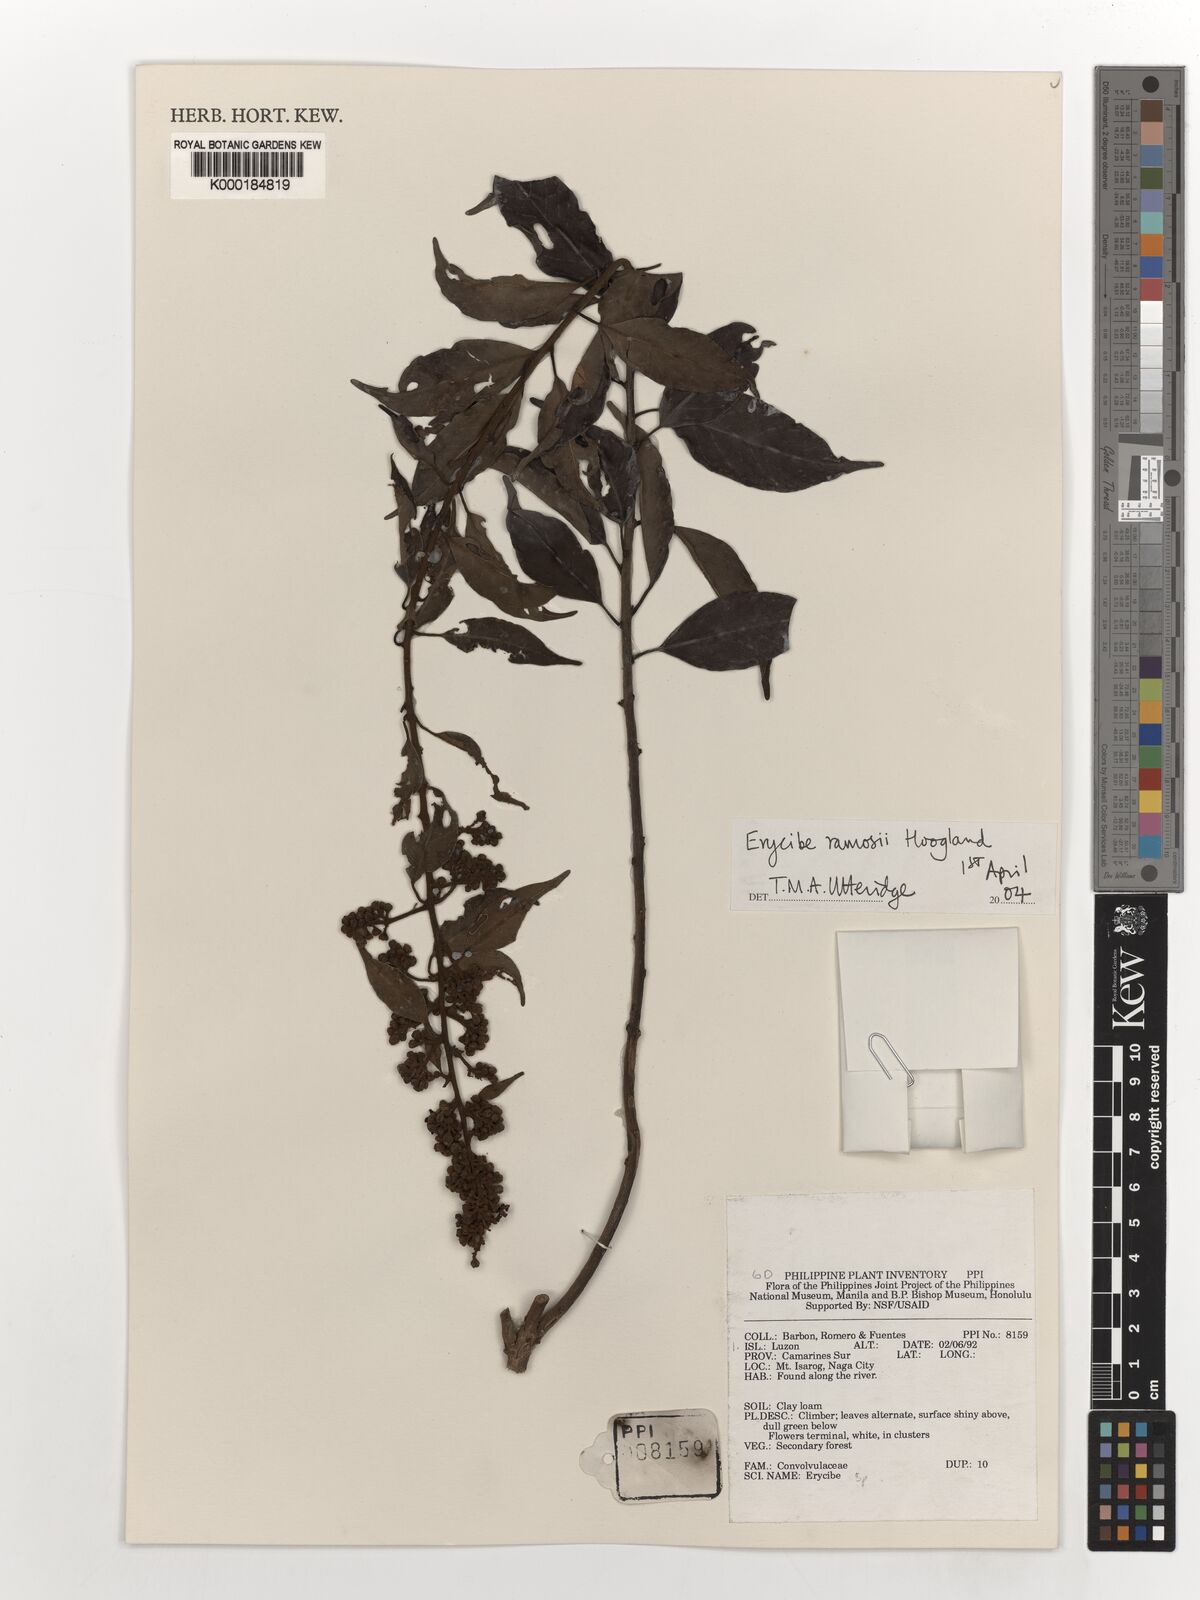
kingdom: Plantae
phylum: Tracheophyta
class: Magnoliopsida
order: Solanales
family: Convolvulaceae
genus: Erycibe
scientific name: Erycibe ramosii
